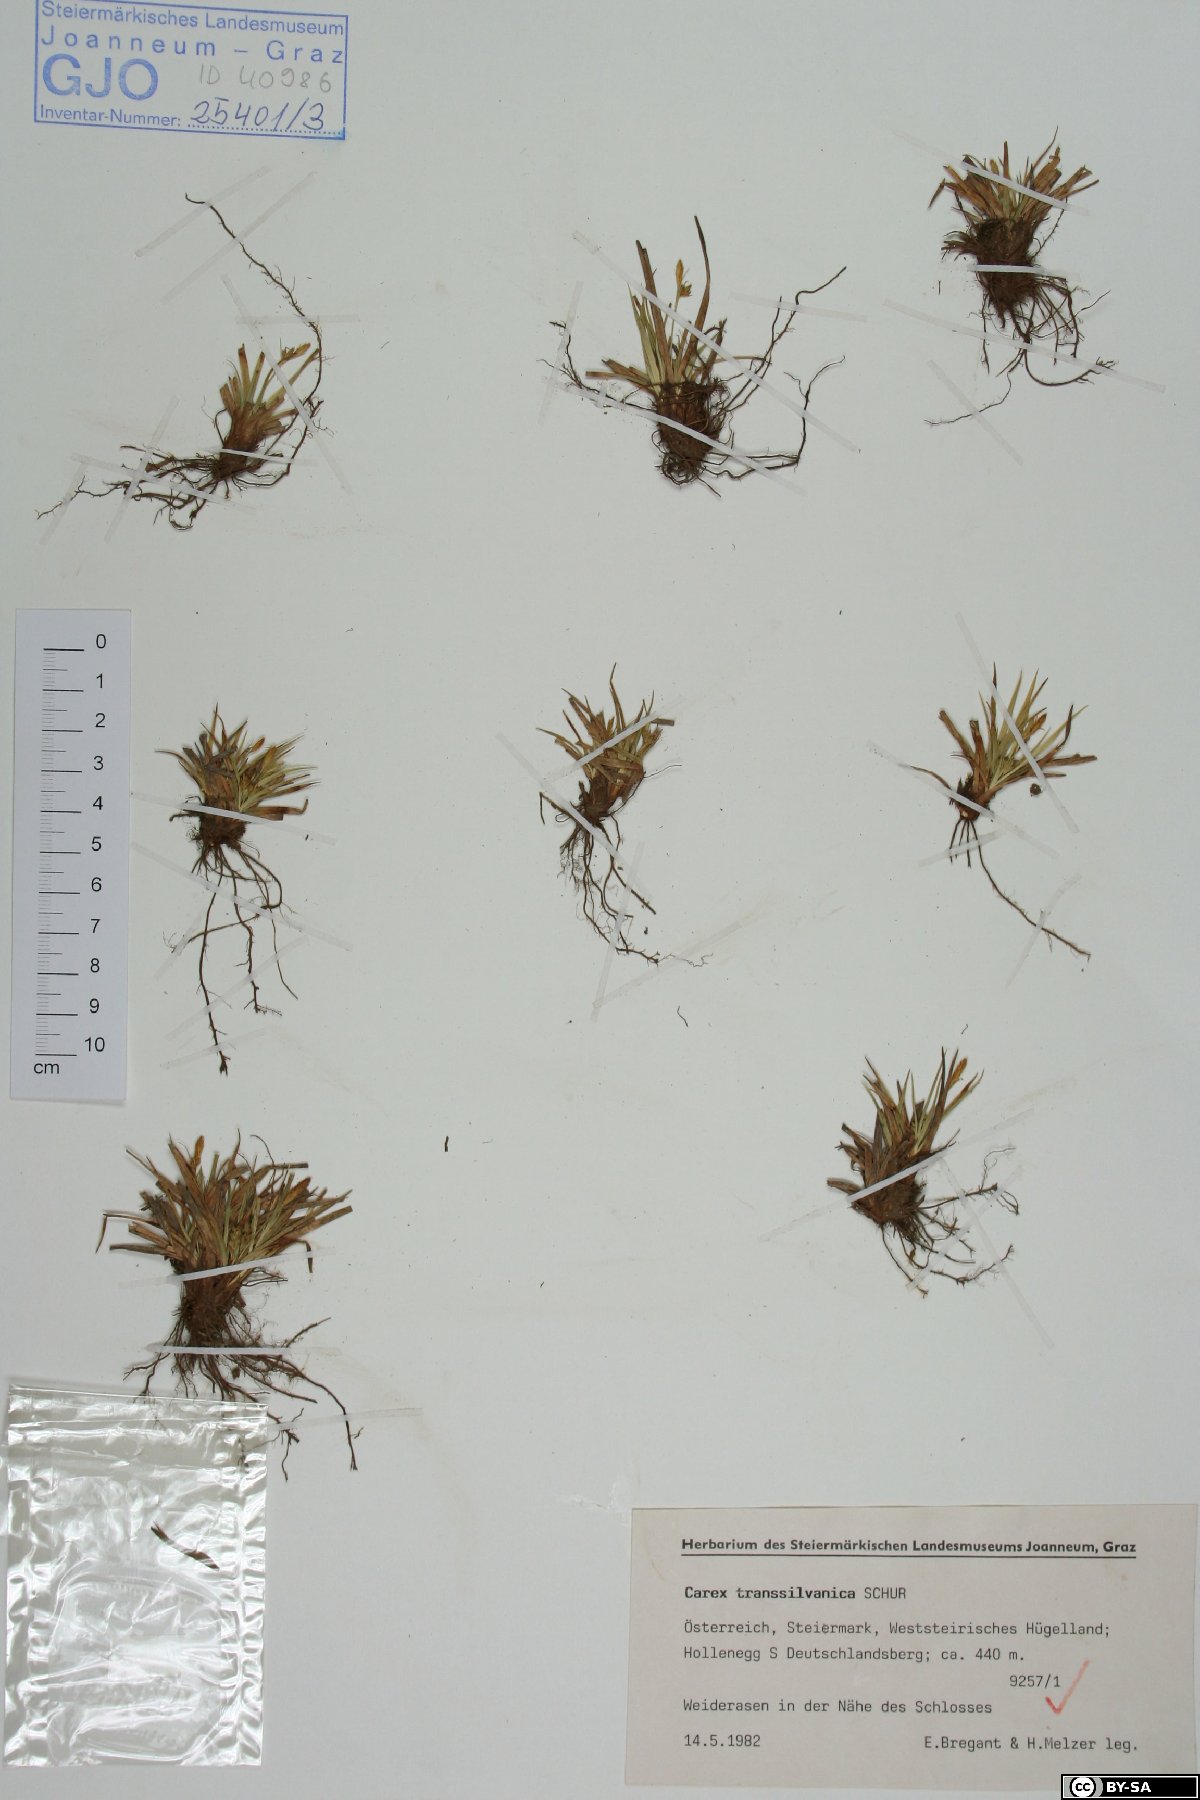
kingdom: Plantae
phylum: Tracheophyta
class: Liliopsida
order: Poales
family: Cyperaceae
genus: Carex
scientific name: Carex depressa
